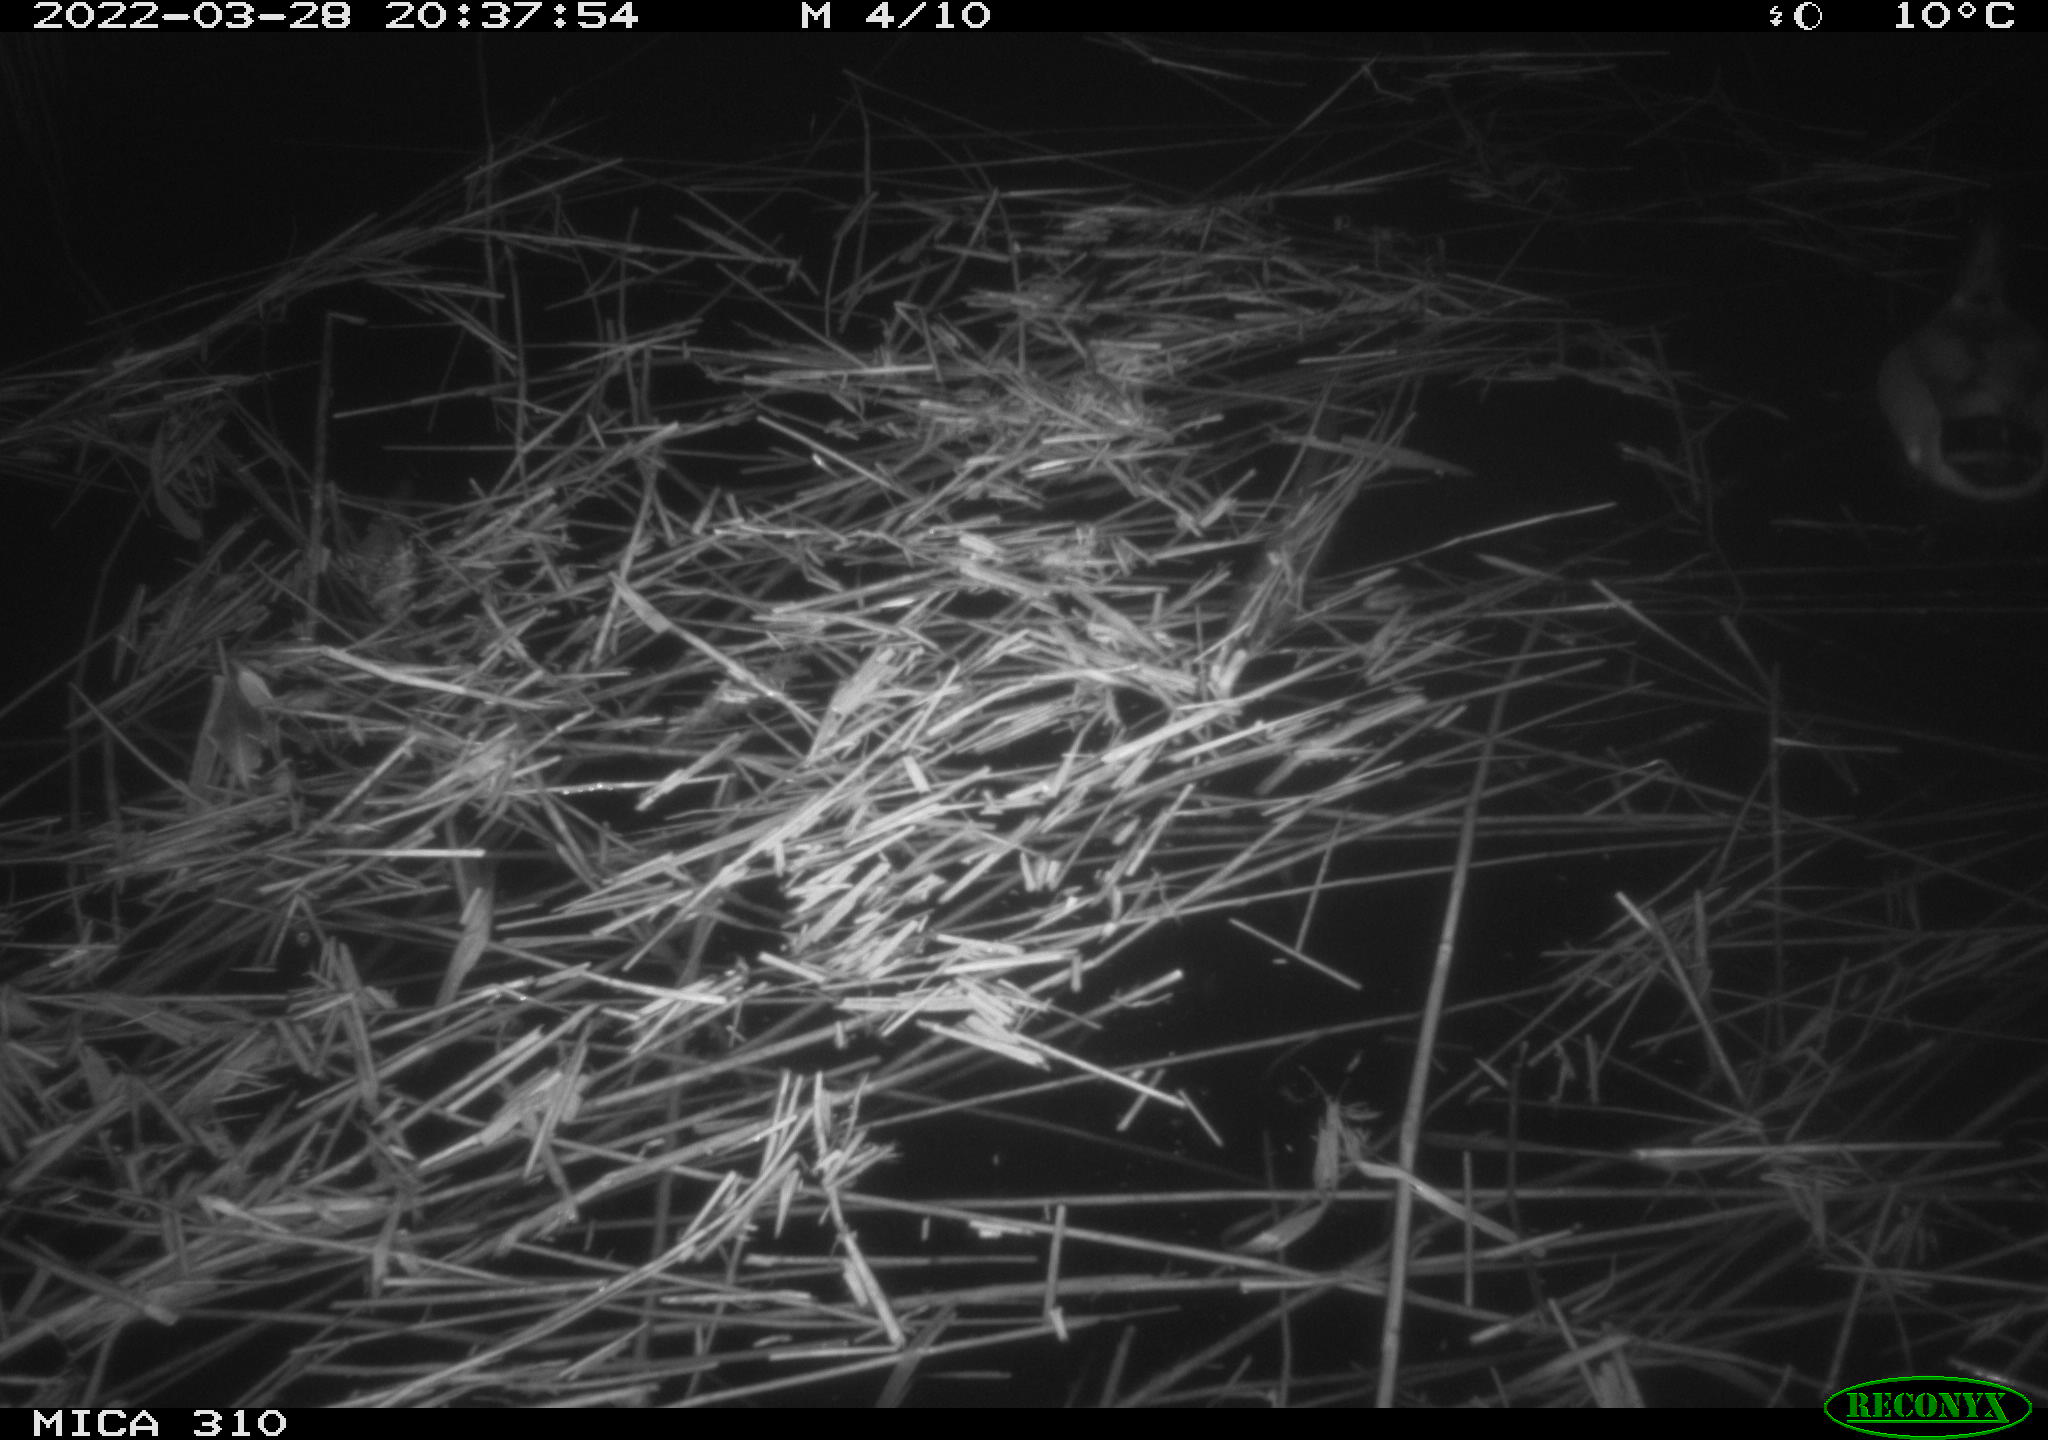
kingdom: Animalia
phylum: Chordata
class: Aves
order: Anseriformes
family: Anatidae
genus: Anas
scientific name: Anas platyrhynchos
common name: Mallard
